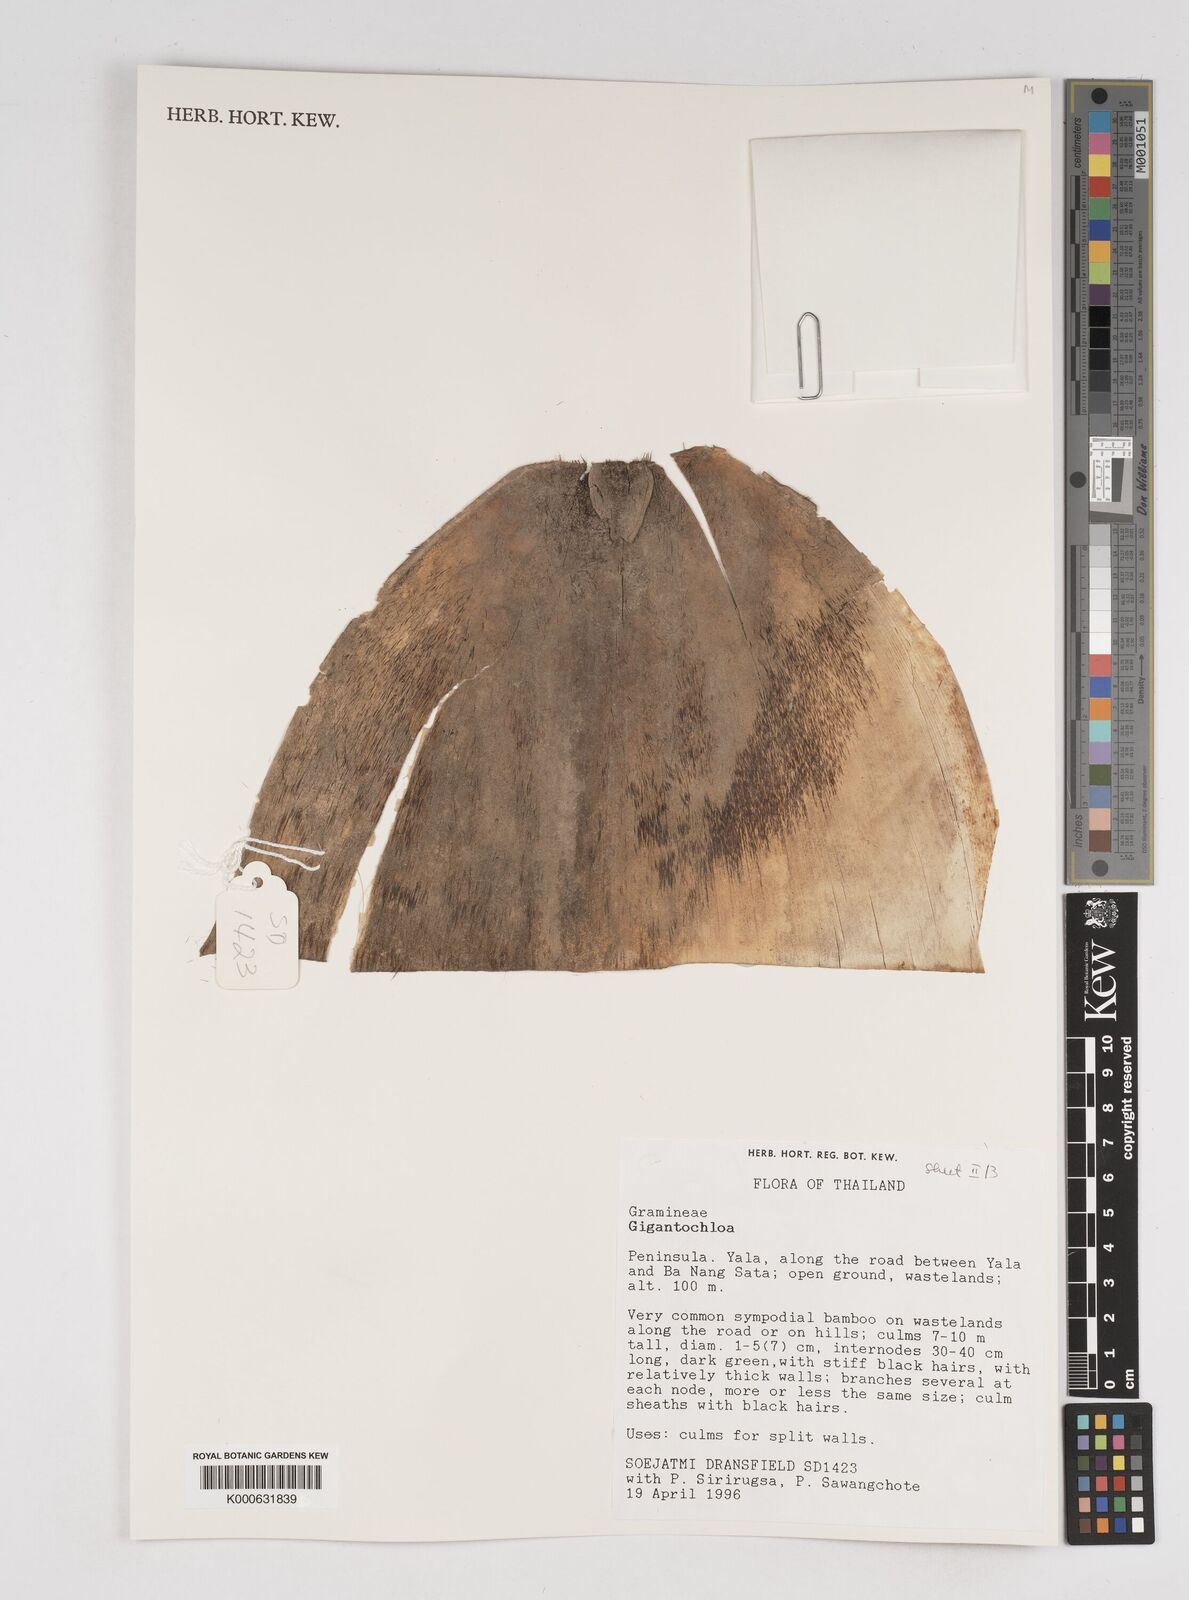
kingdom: Plantae
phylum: Tracheophyta
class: Liliopsida
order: Poales
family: Poaceae
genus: Gigantochloa
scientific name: Gigantochloa
